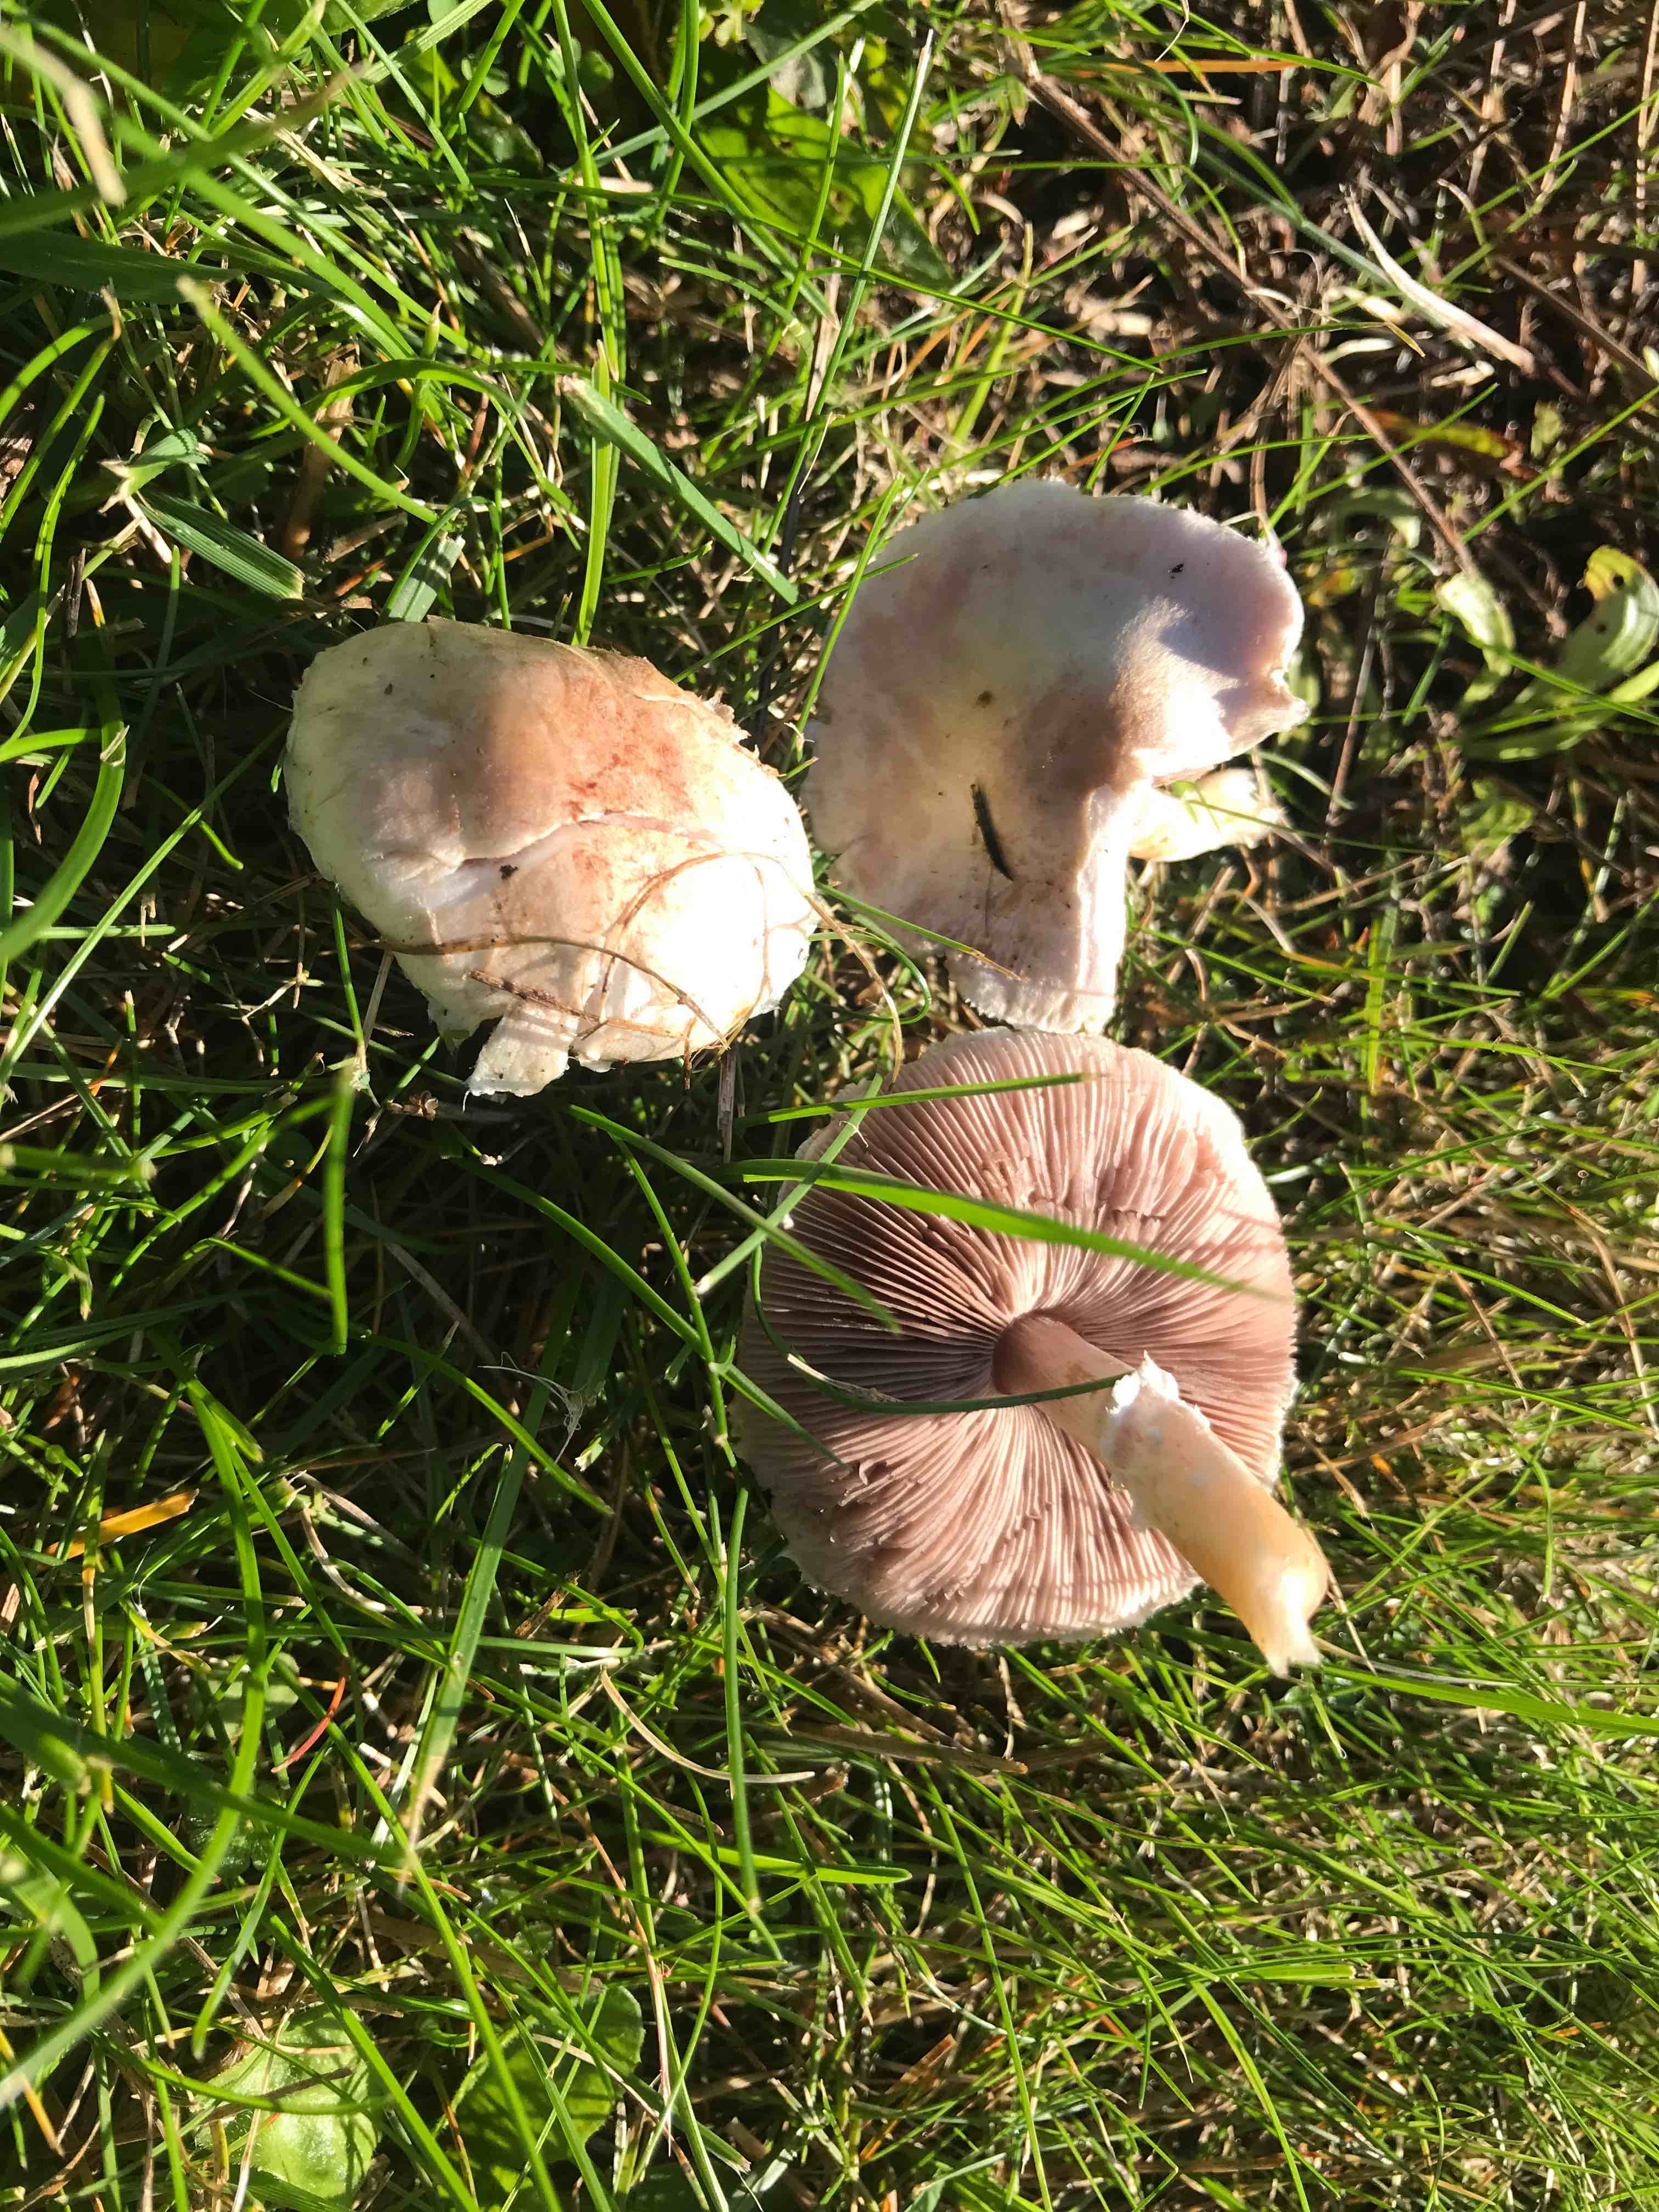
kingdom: Fungi
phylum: Basidiomycota
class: Agaricomycetes
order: Agaricales
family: Agaricaceae
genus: Agaricus
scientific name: Agaricus
